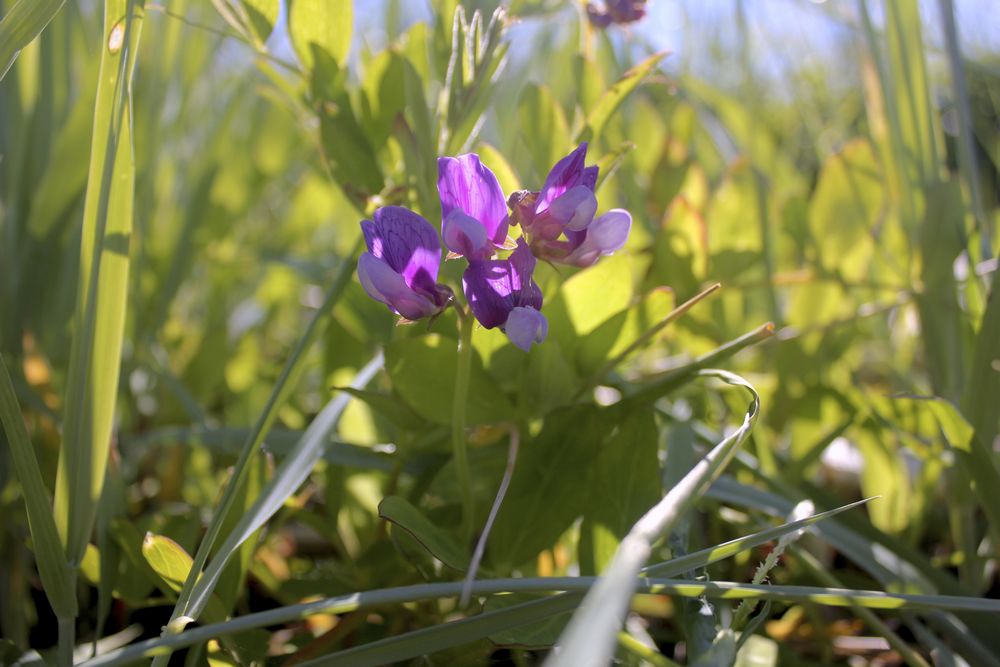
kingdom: Plantae
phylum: Tracheophyta
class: Magnoliopsida
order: Fabales
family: Fabaceae
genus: Lathyrus
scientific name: Lathyrus
